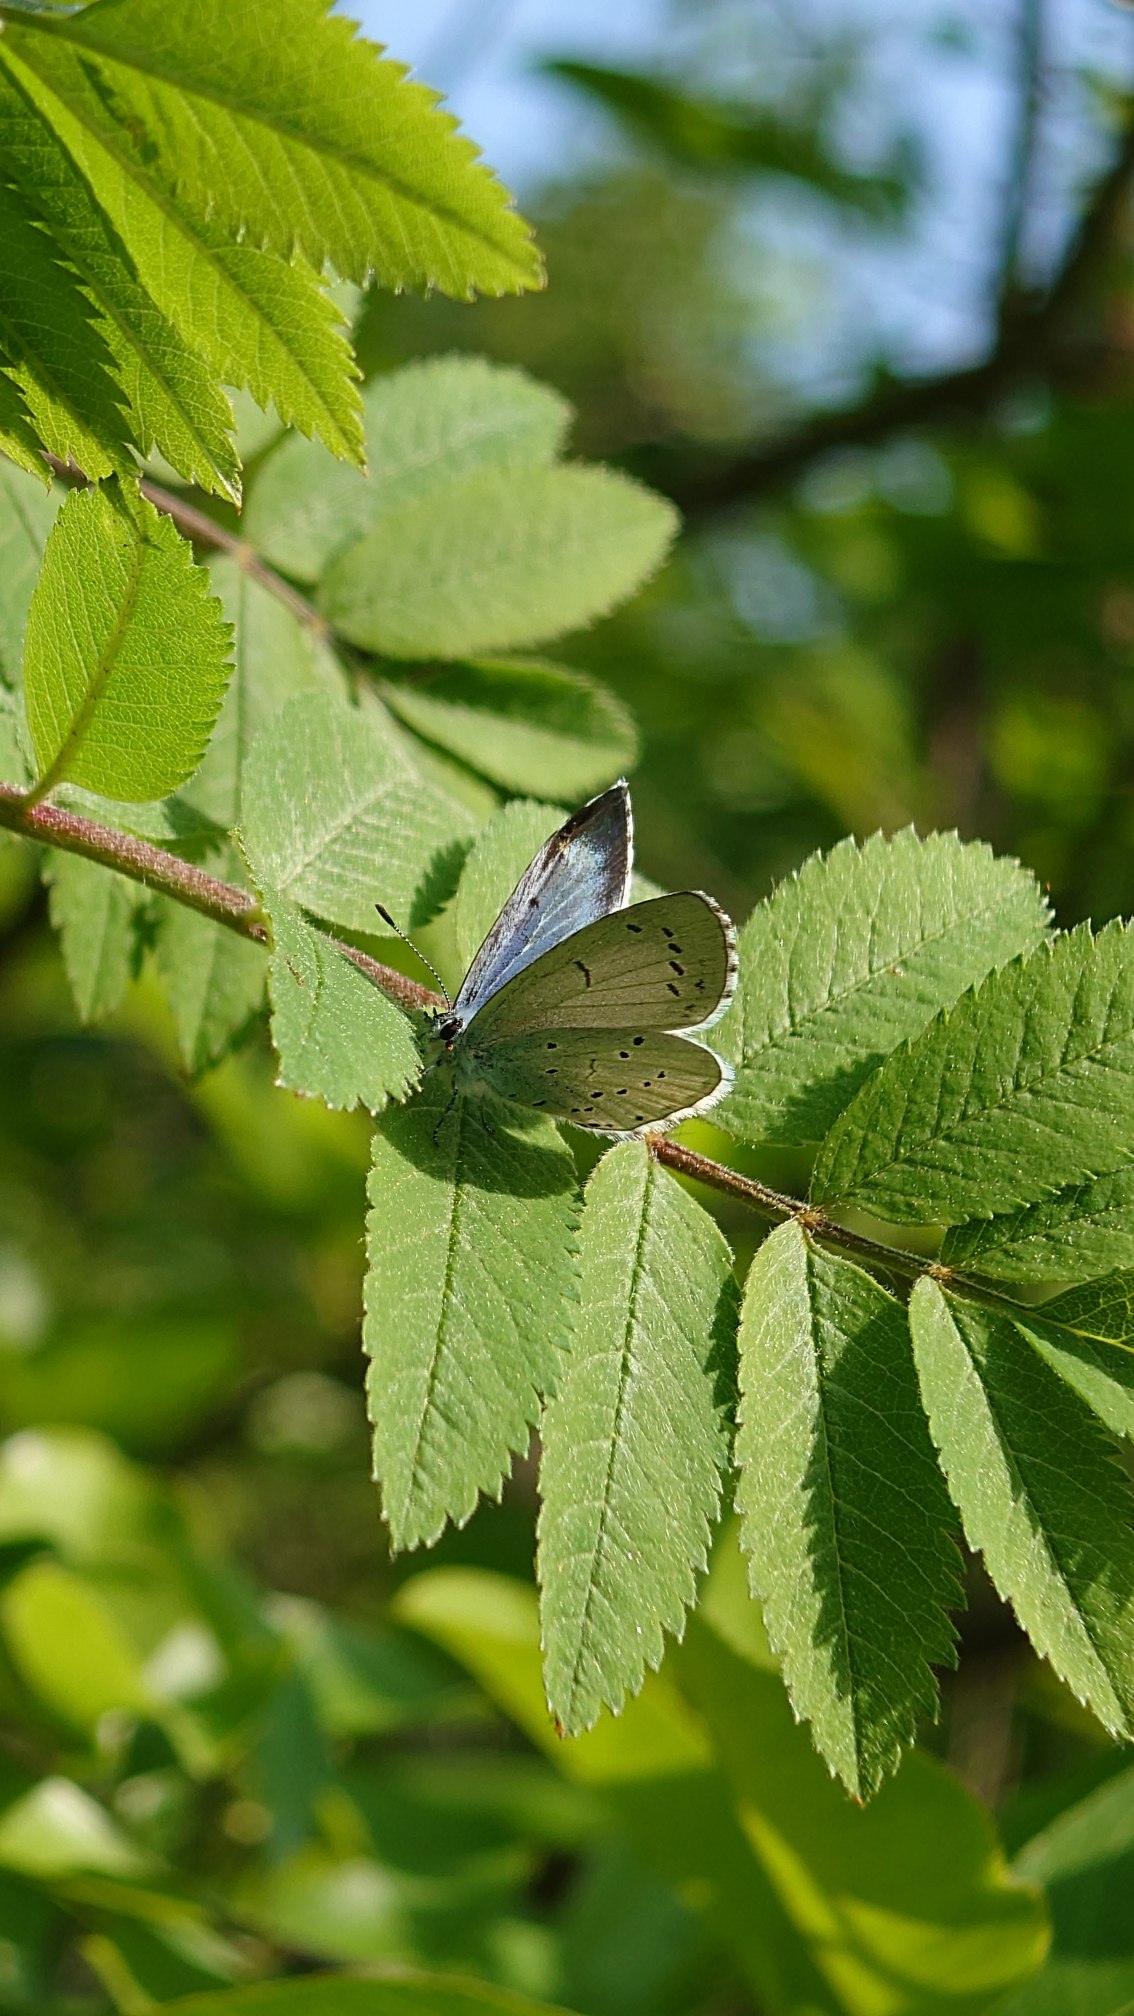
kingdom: Animalia
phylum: Arthropoda
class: Insecta
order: Lepidoptera
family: Lycaenidae
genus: Celastrina
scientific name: Celastrina argiolus
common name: Skovblåfugl
